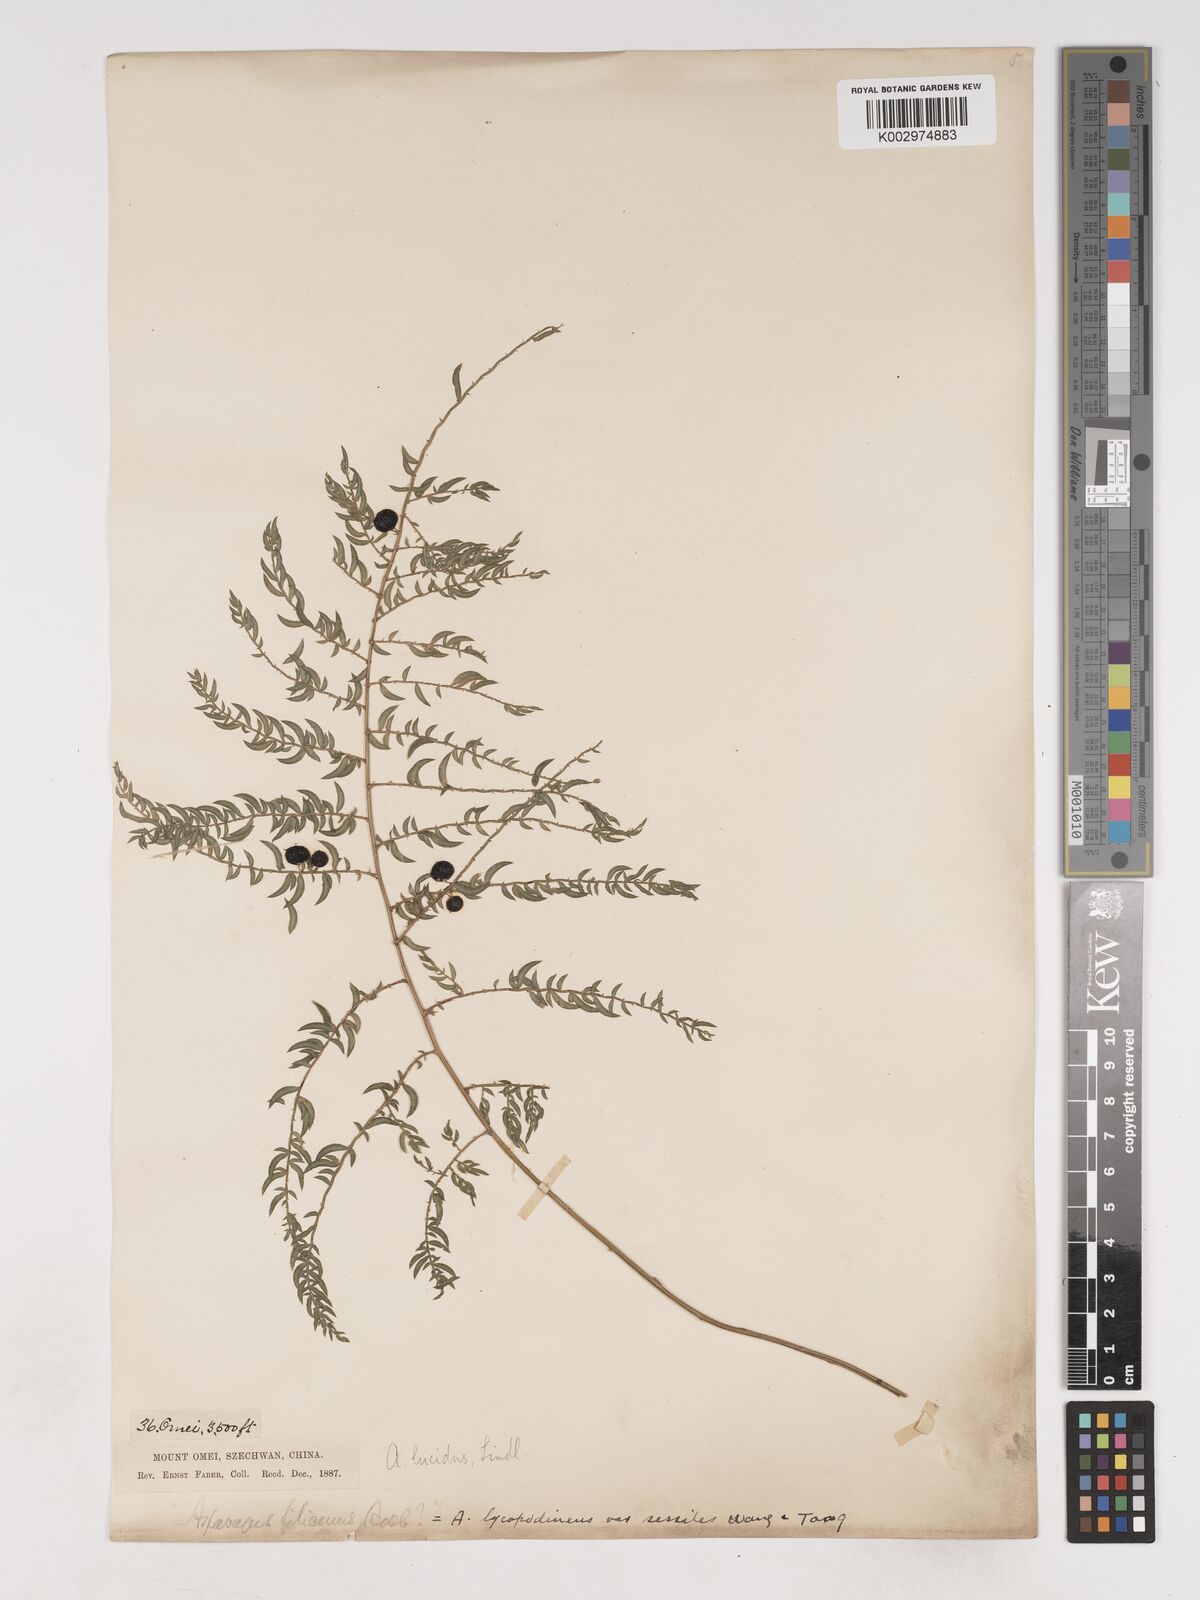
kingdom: Plantae
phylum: Tracheophyta
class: Liliopsida
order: Asparagales
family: Asparagaceae
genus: Asparagus
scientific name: Asparagus lycopodineus
